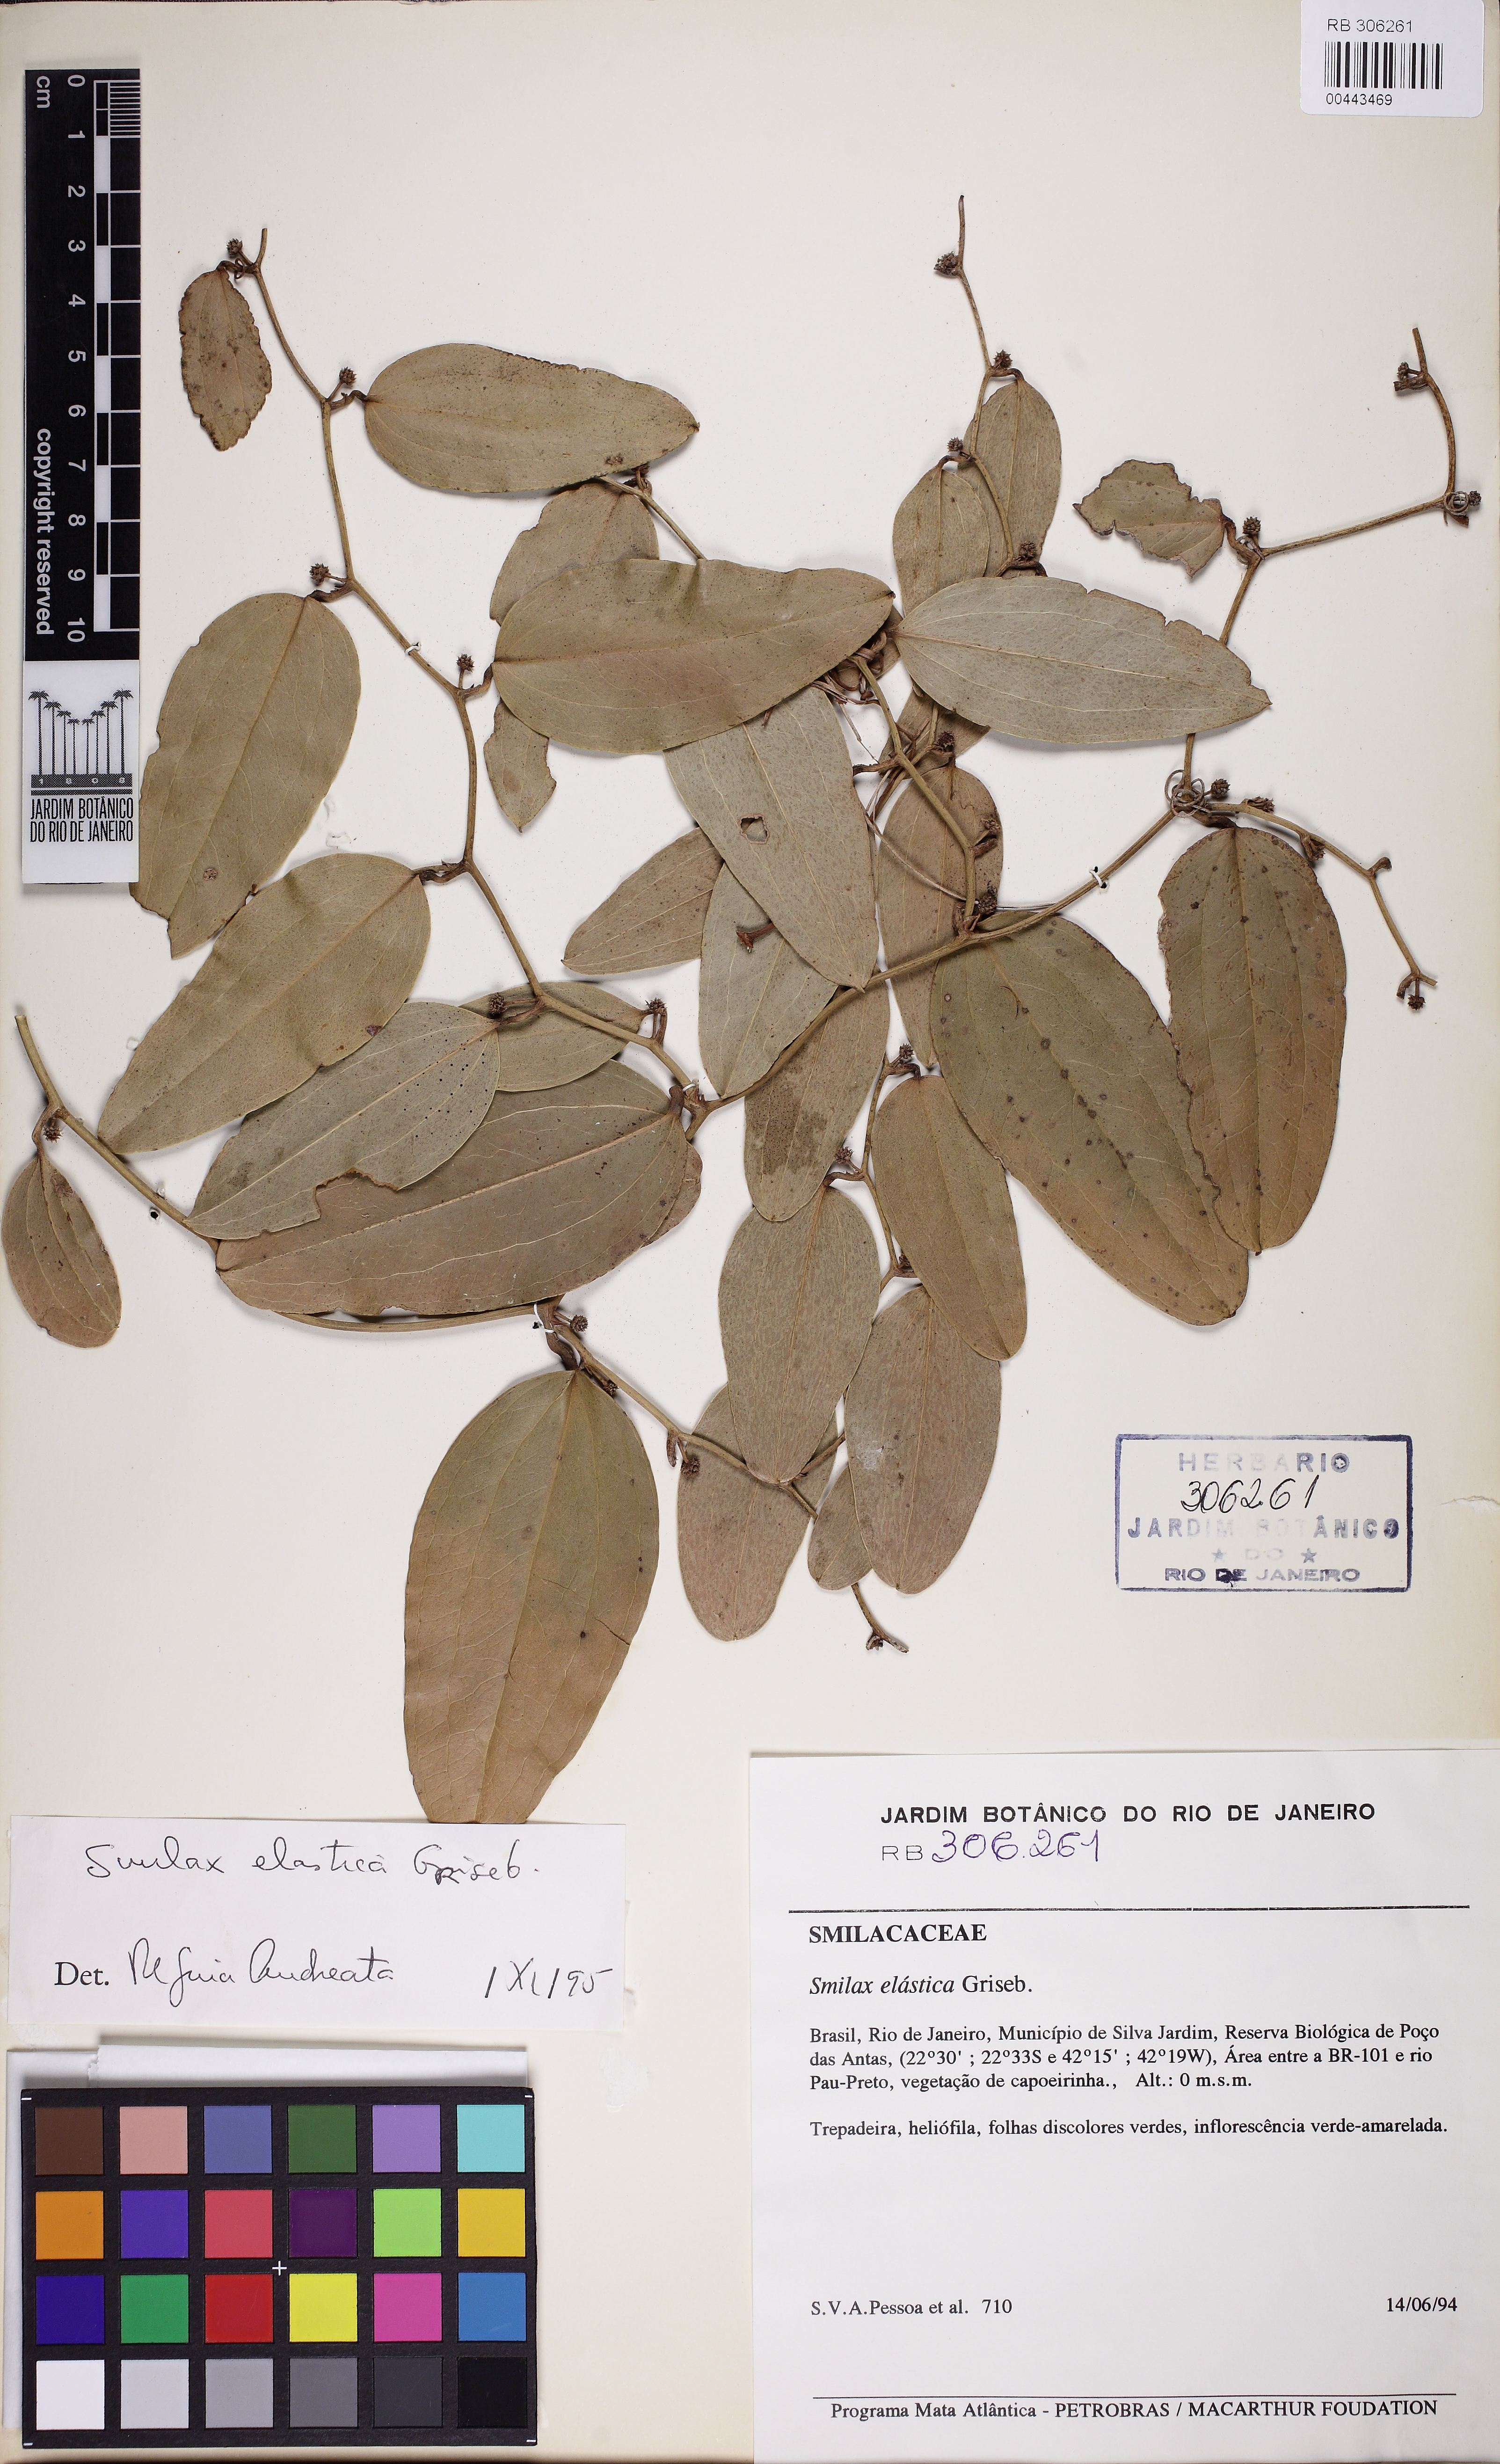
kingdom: Plantae
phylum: Tracheophyta
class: Liliopsida
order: Liliales
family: Smilacaceae
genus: Smilax
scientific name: Smilax elastica
